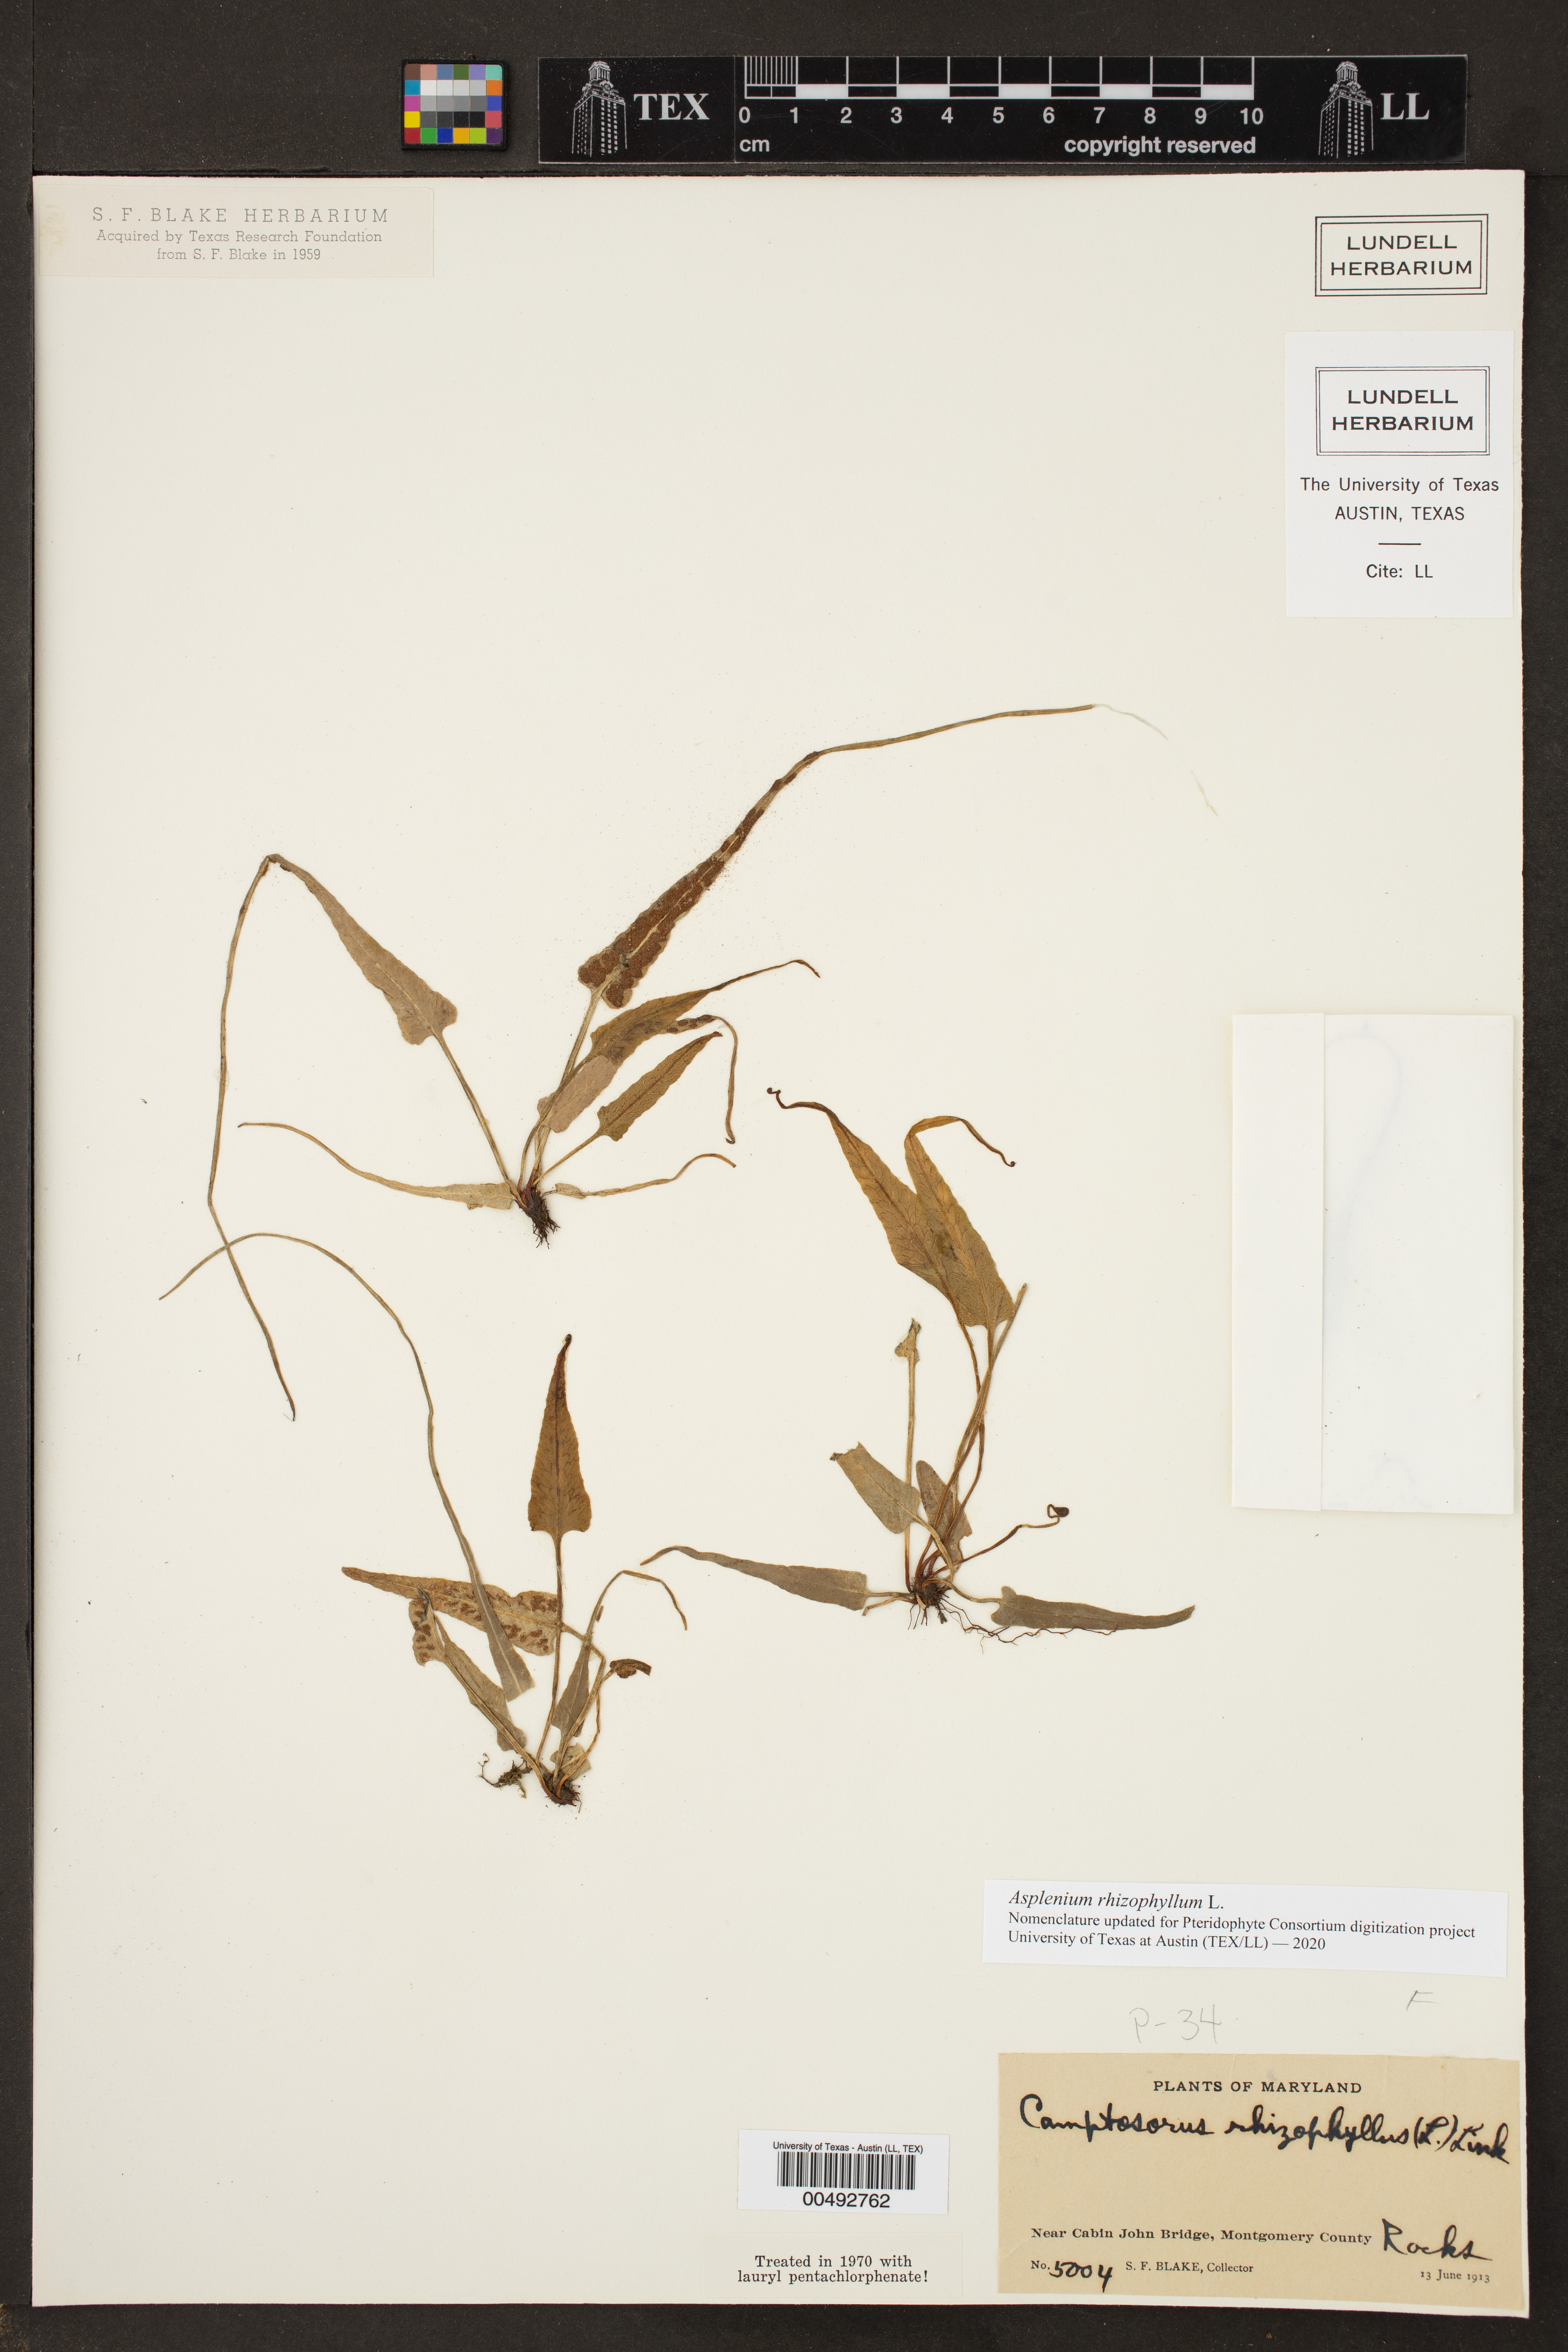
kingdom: Plantae
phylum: Tracheophyta
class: Polypodiopsida
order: Polypodiales
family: Aspleniaceae
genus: Asplenium
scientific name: Asplenium rhizophyllum
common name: Walking fern
